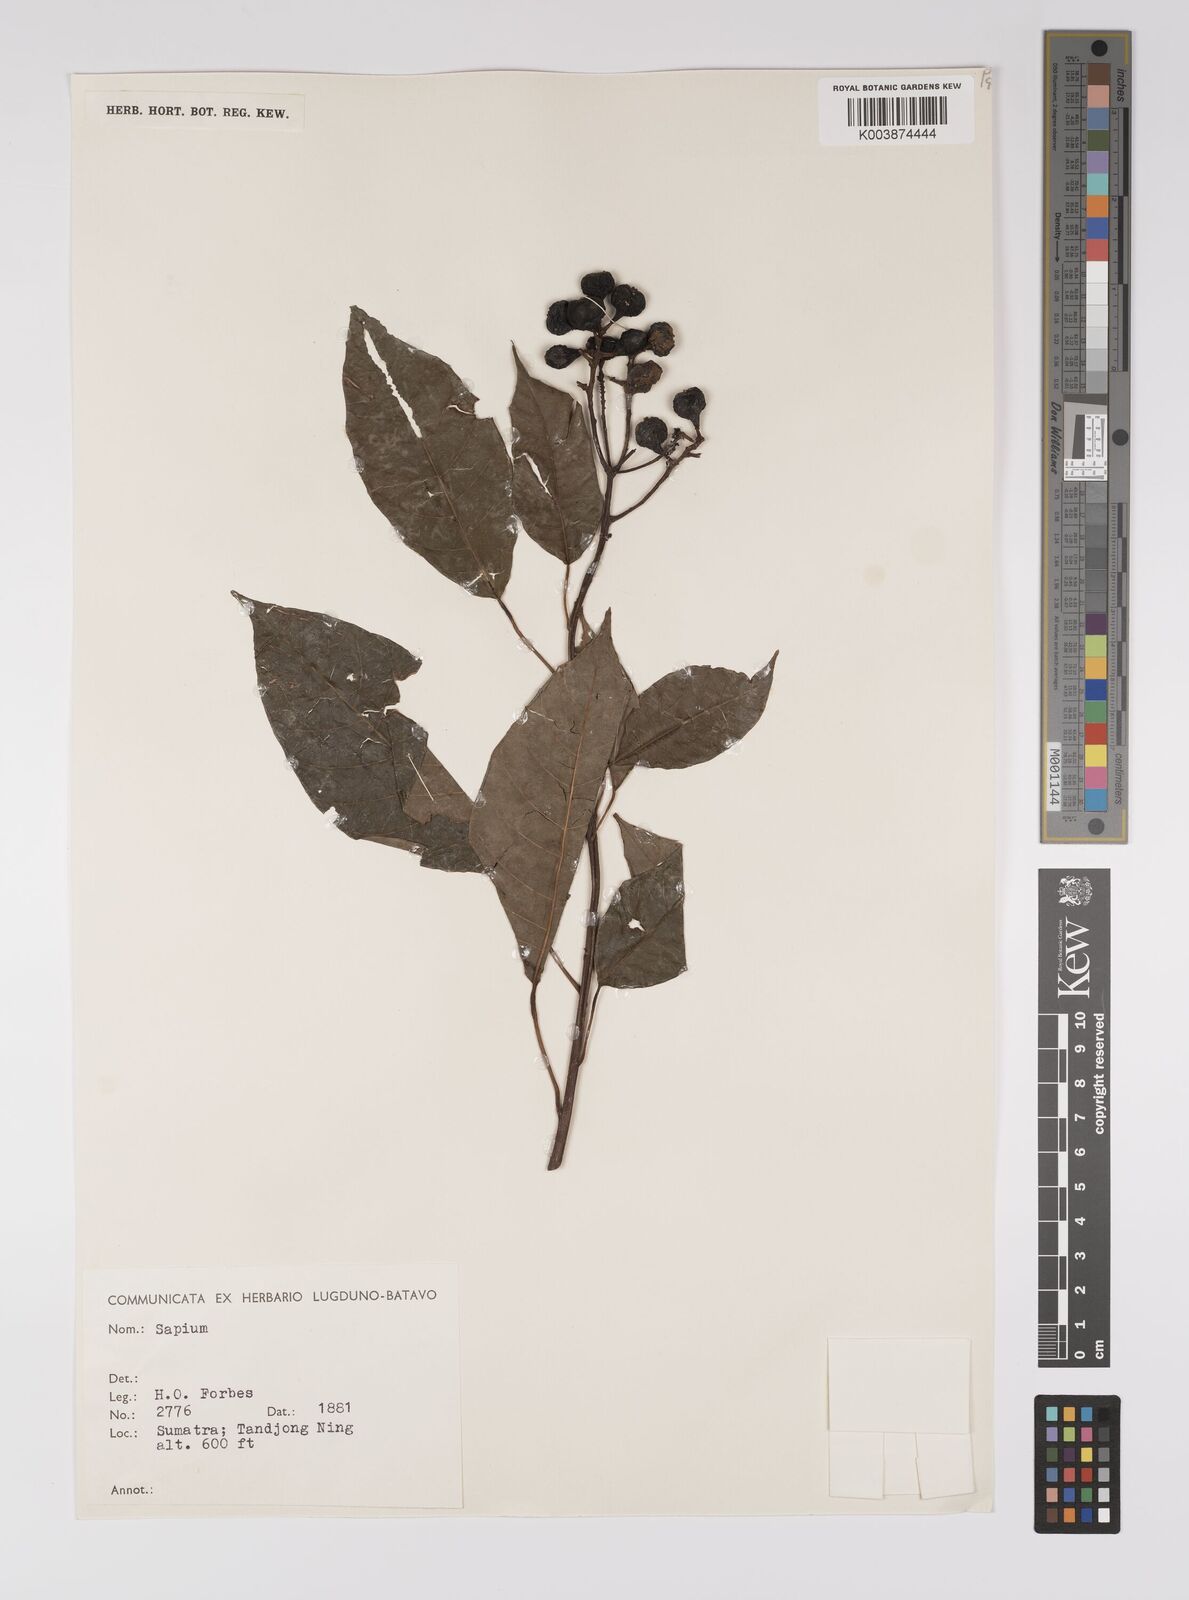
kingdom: Plantae
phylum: Tracheophyta
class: Magnoliopsida
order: Malpighiales
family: Euphorbiaceae
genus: Balakata
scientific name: Balakata baccata
